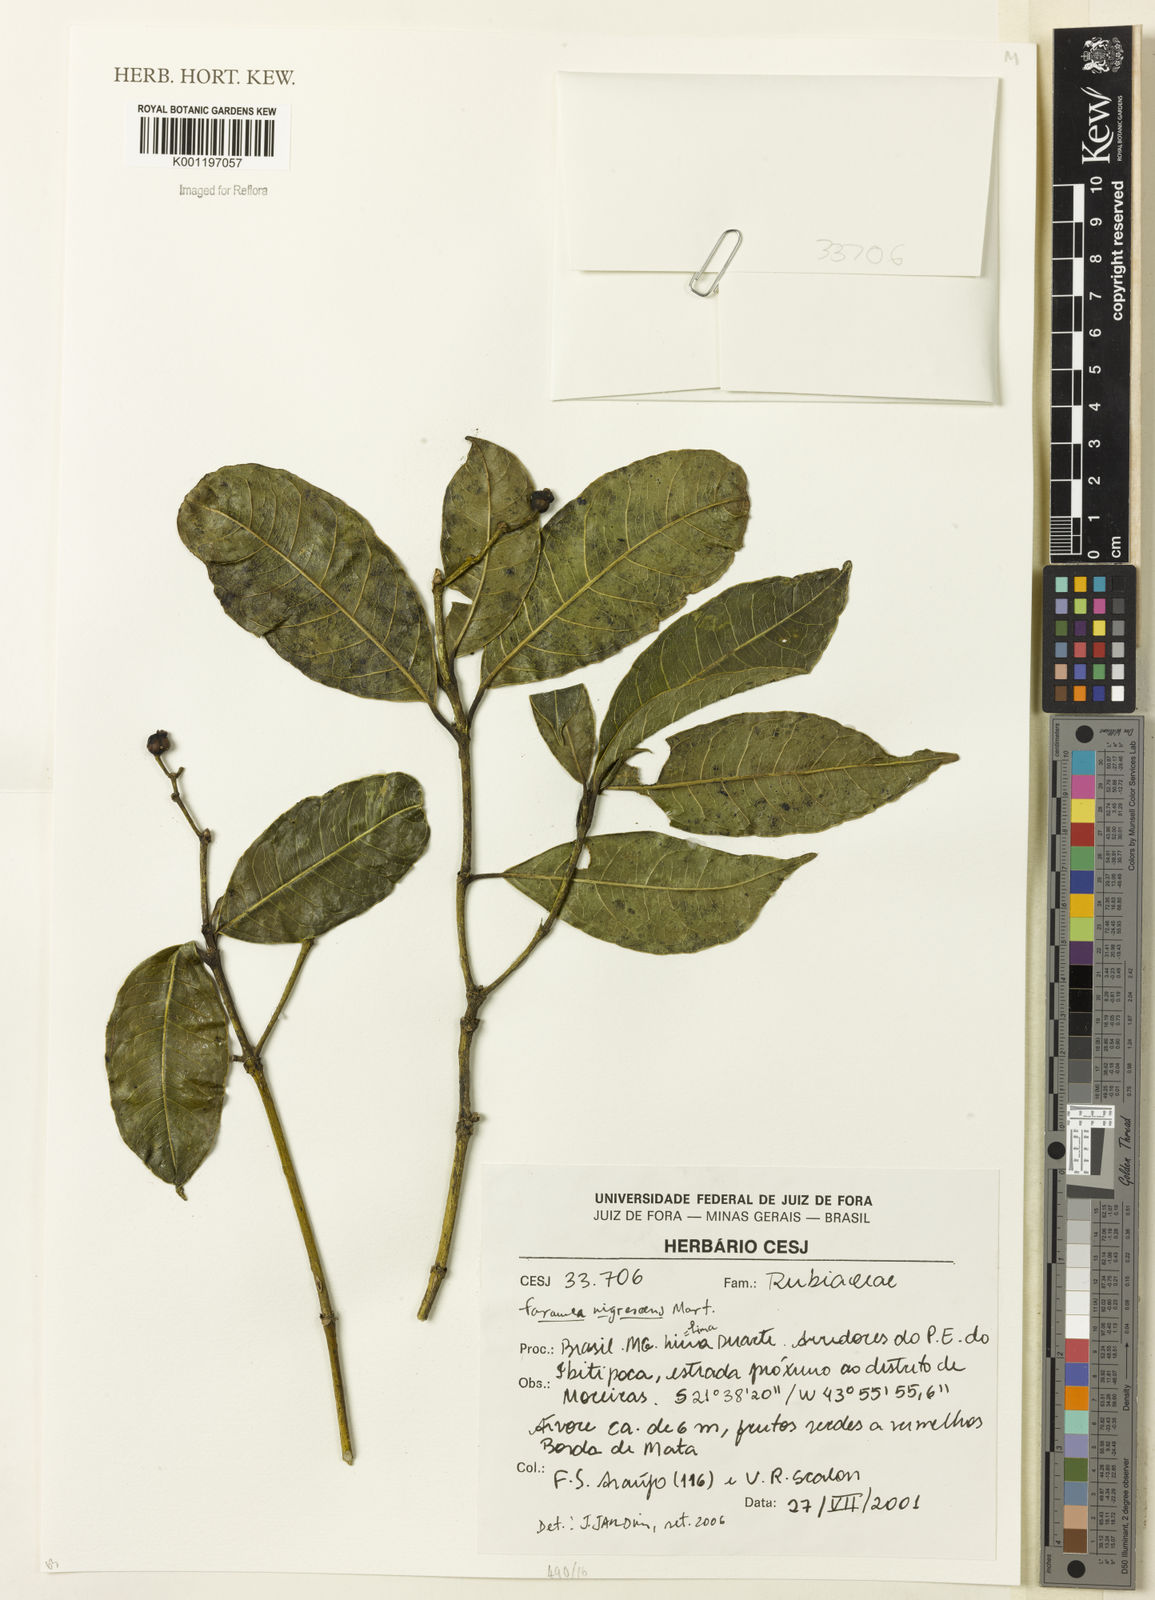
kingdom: Plantae
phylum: Tracheophyta
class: Magnoliopsida
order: Gentianales
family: Rubiaceae
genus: Faramea
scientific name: Faramea nigrescens
